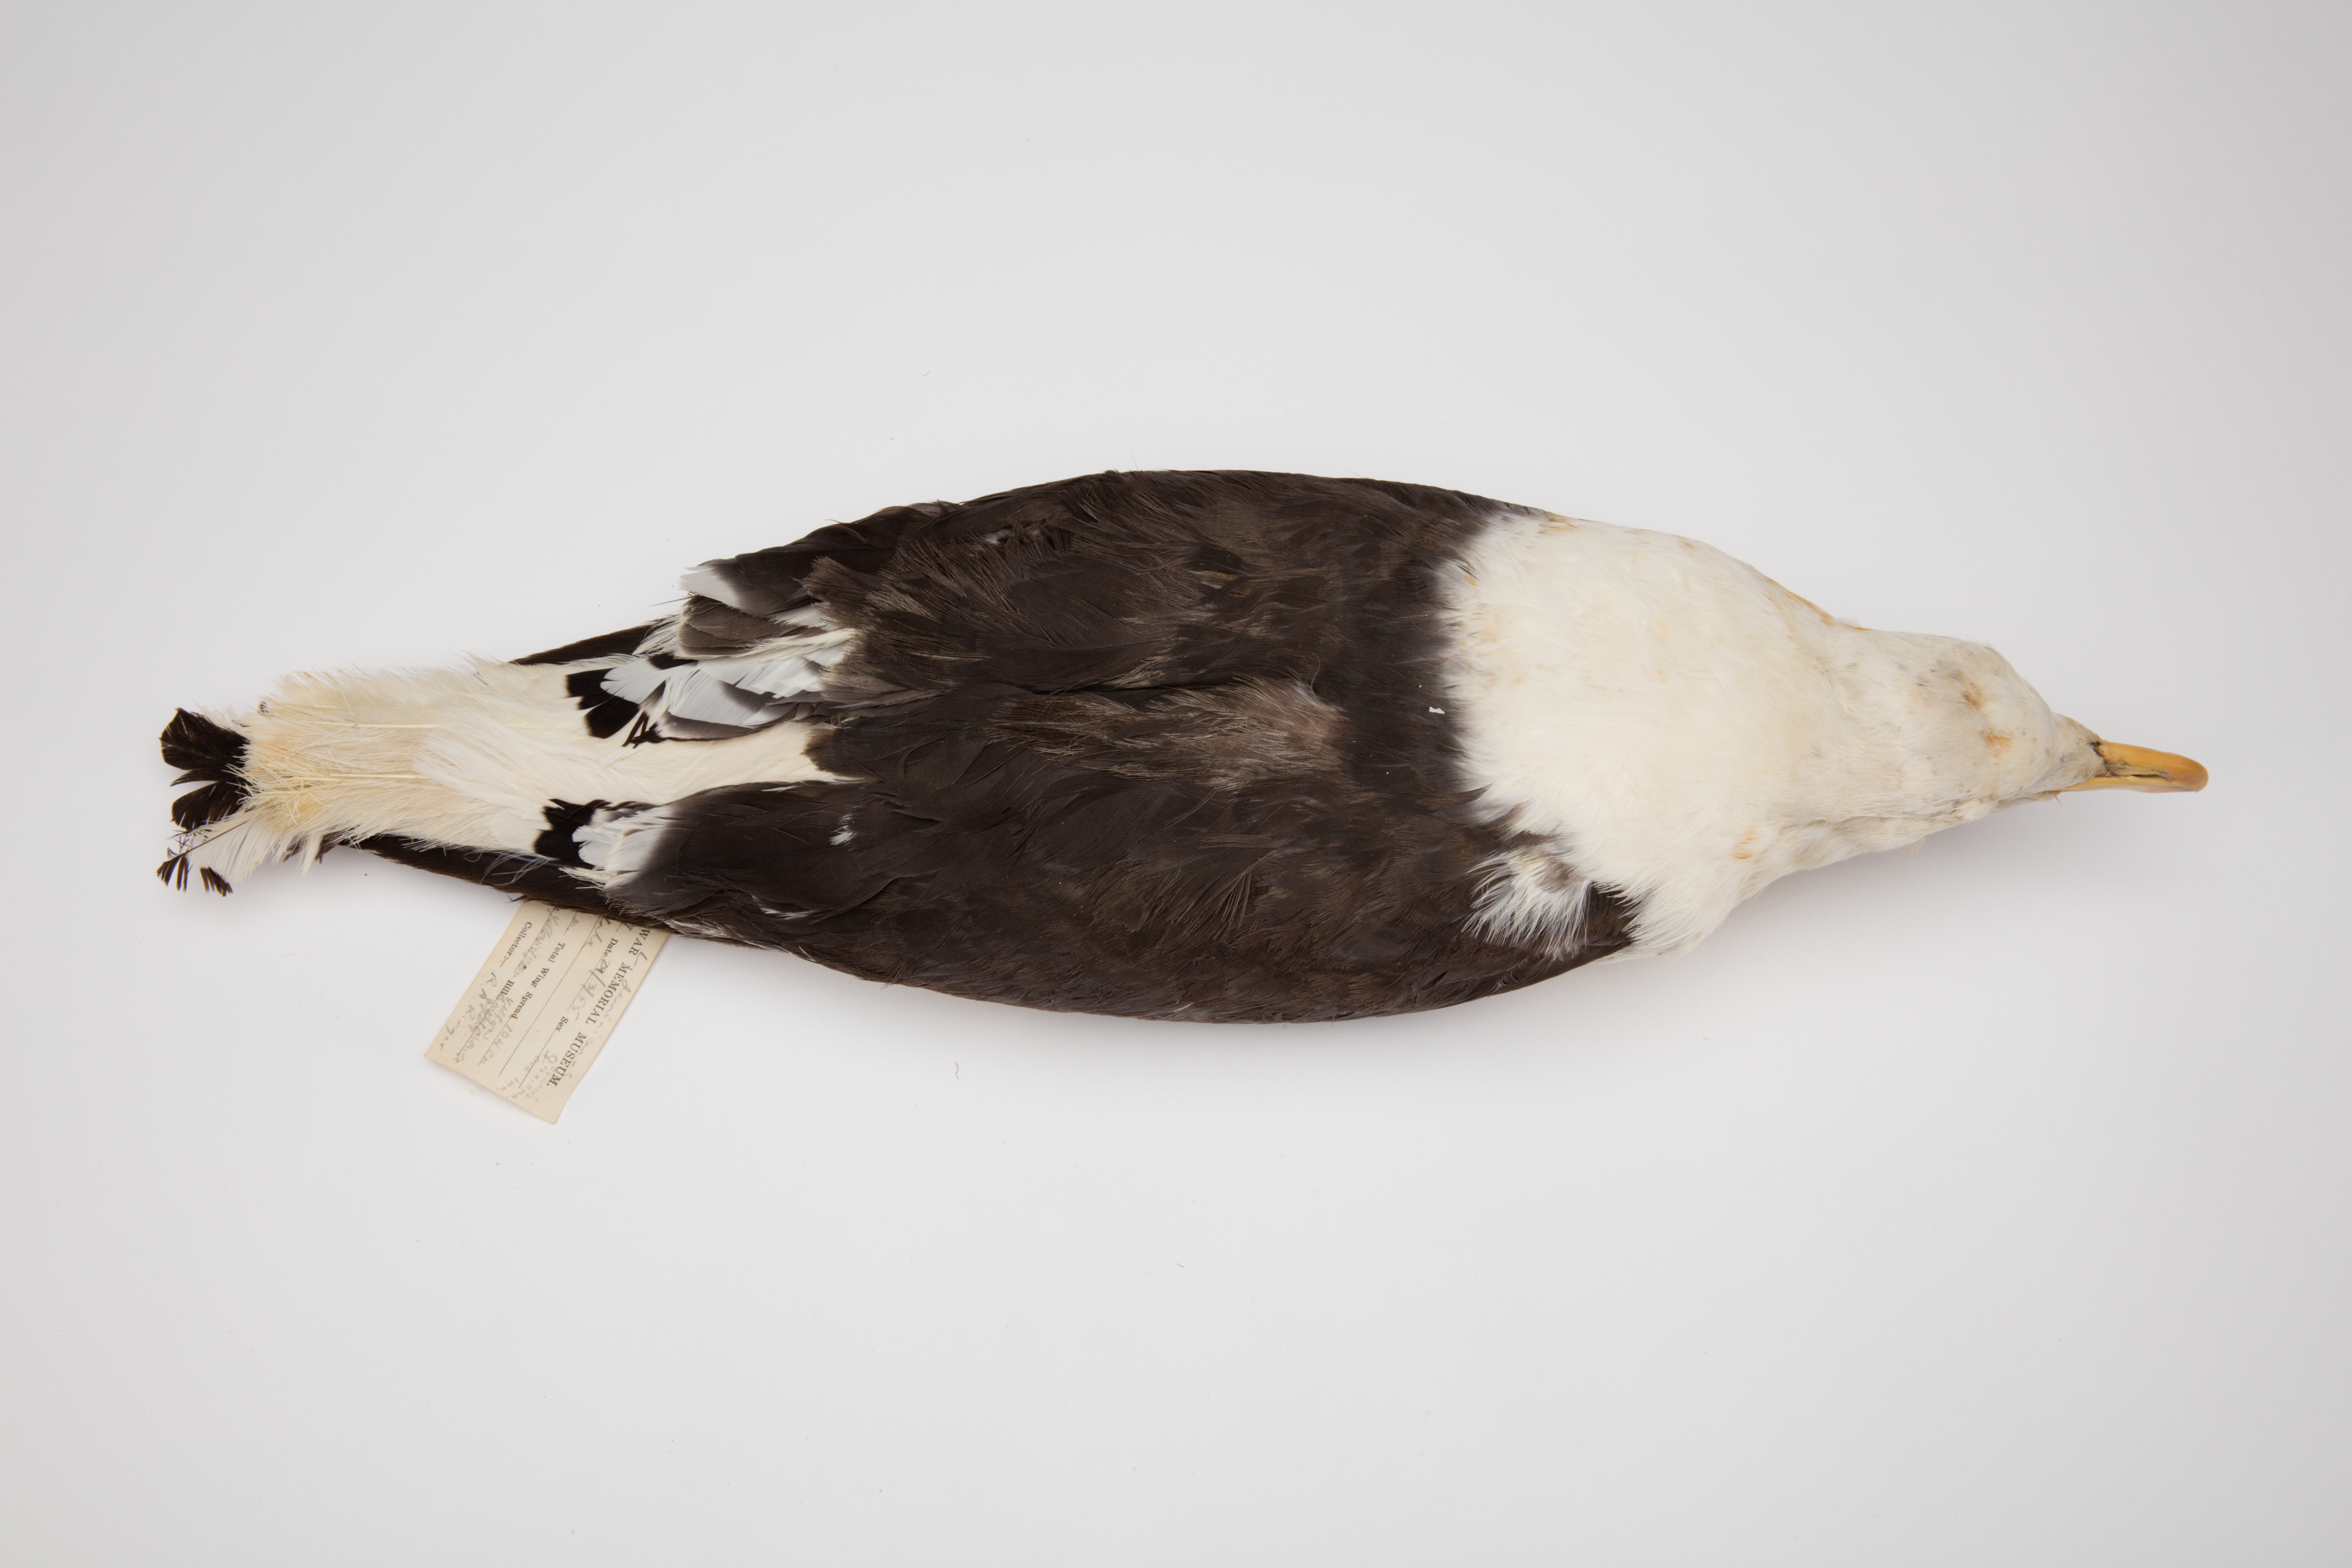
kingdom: Animalia
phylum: Chordata
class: Aves
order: Charadriiformes
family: Laridae
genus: Larus
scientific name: Larus dominicanus
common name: Kelp gull
